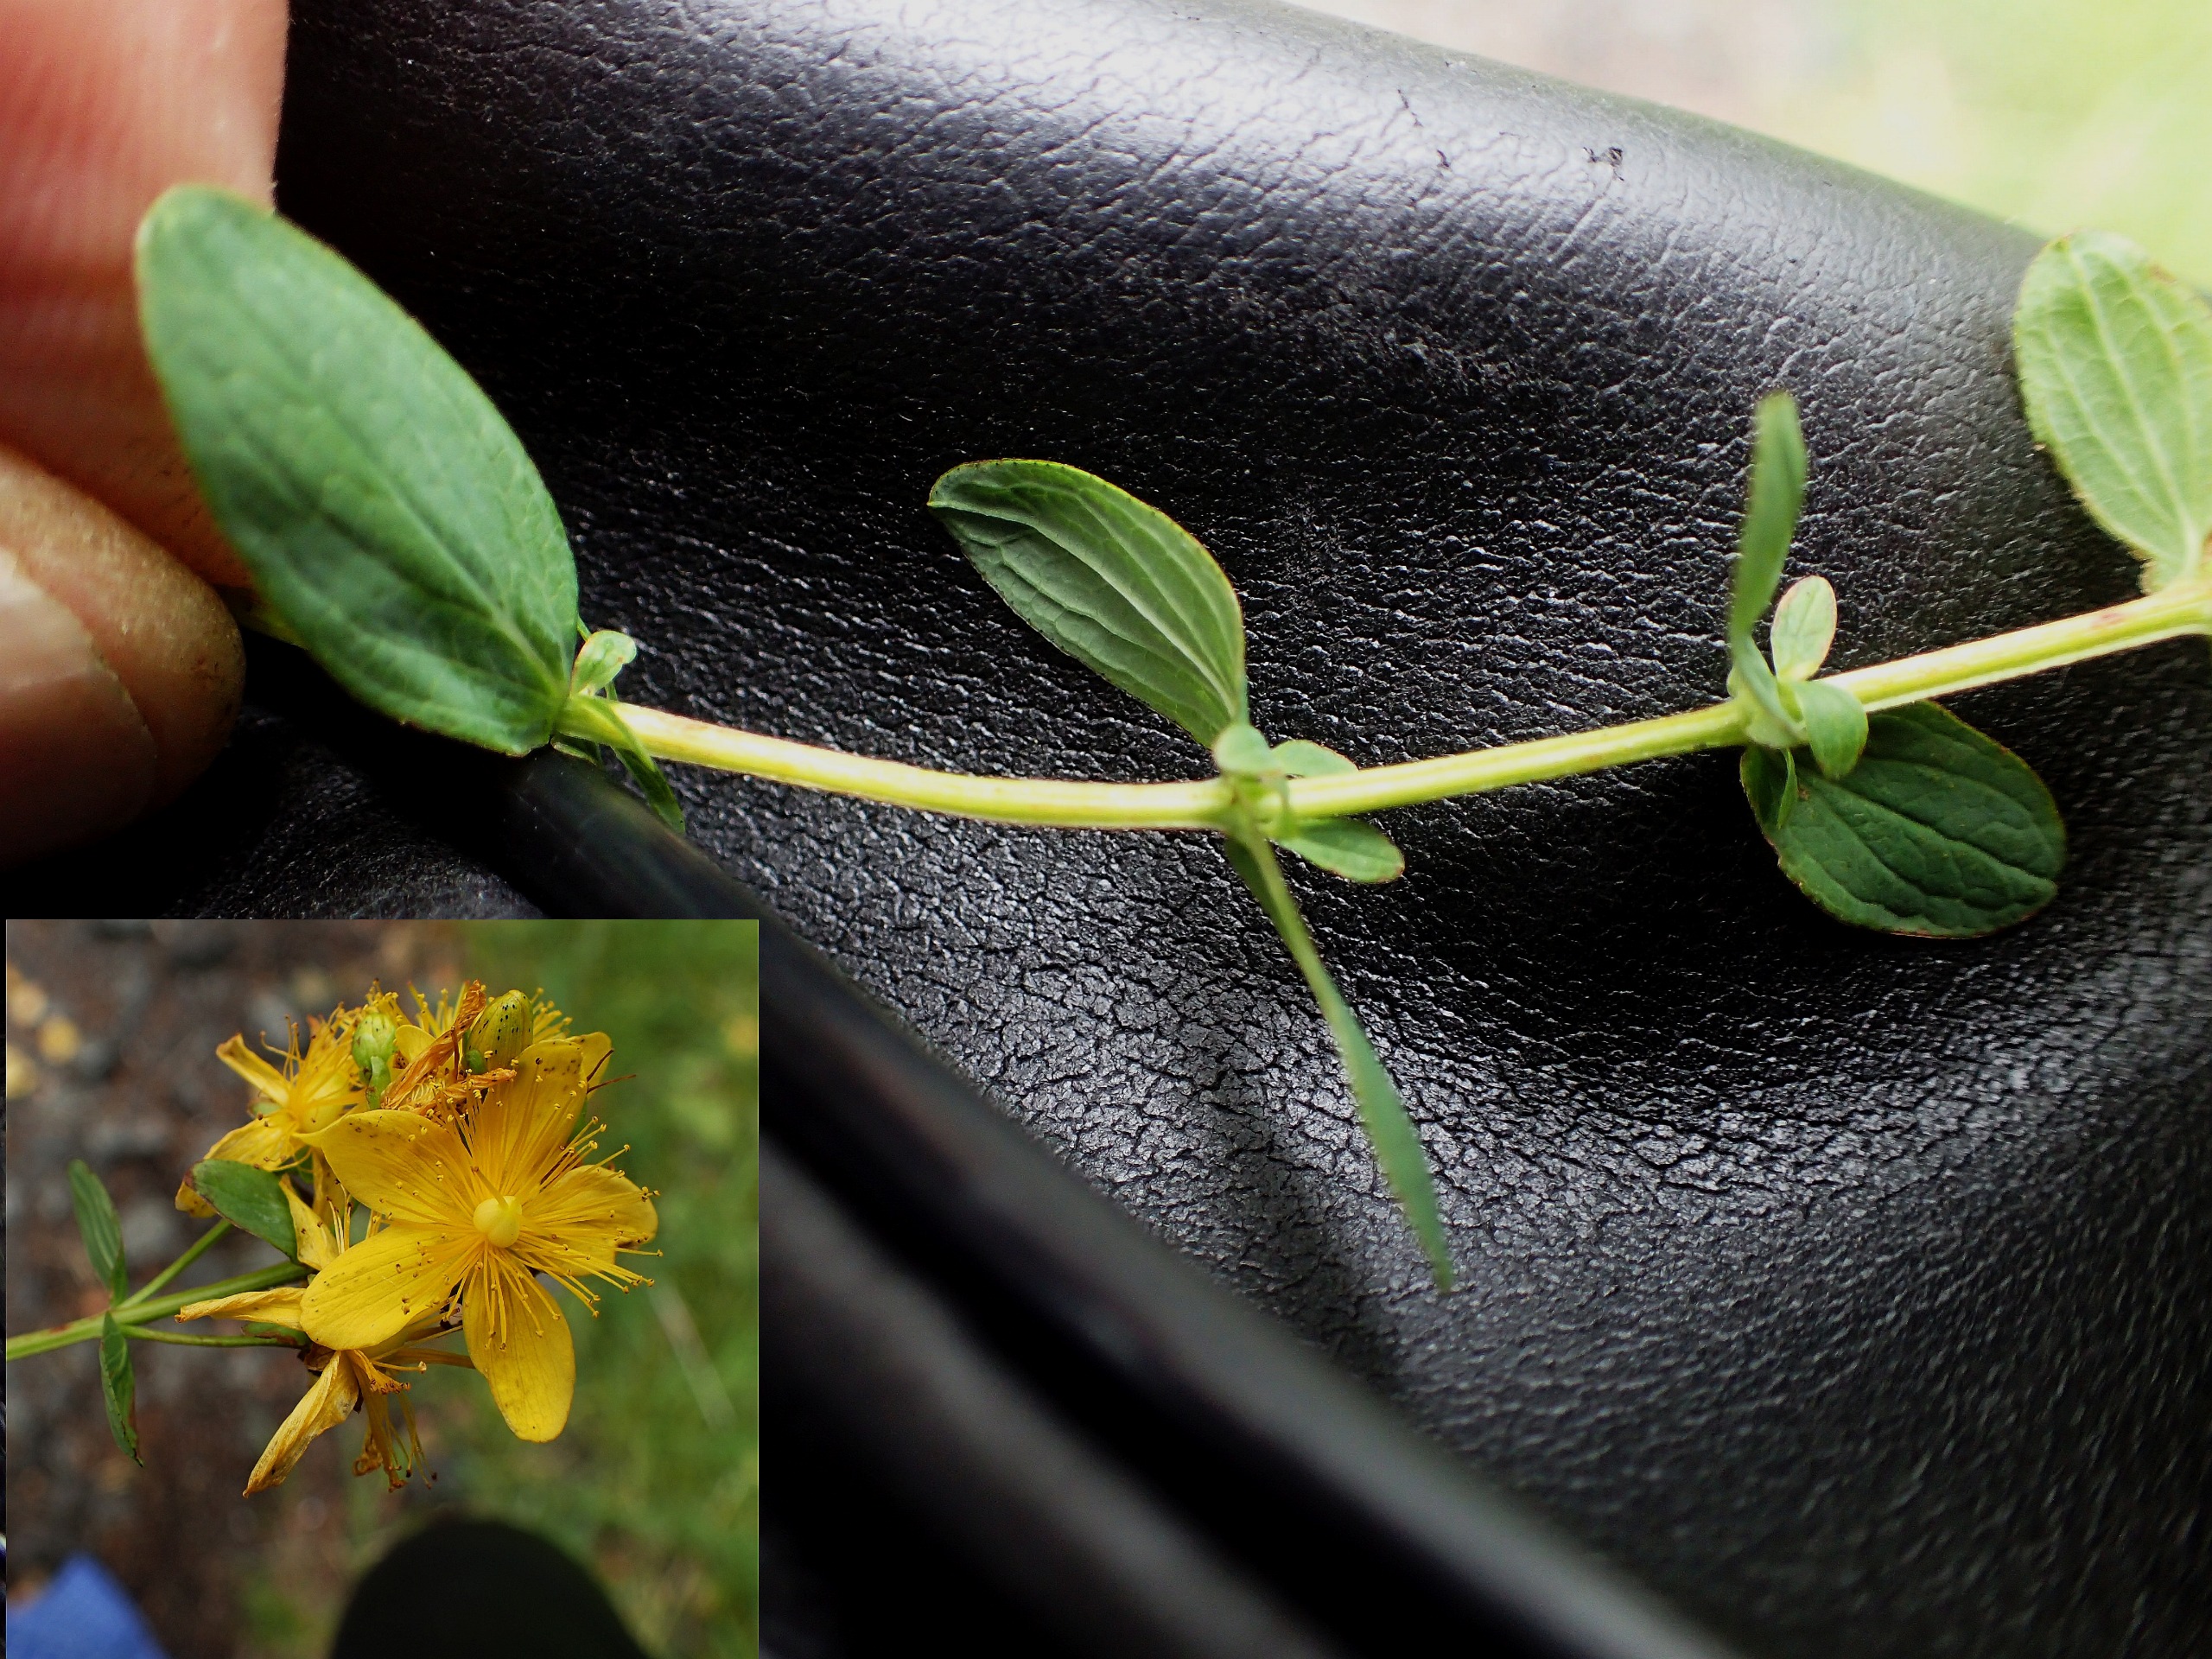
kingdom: Plantae
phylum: Tracheophyta
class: Magnoliopsida
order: Malpighiales
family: Hypericaceae
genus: Hypericum
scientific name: Hypericum maculatum
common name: Kantet perikon
